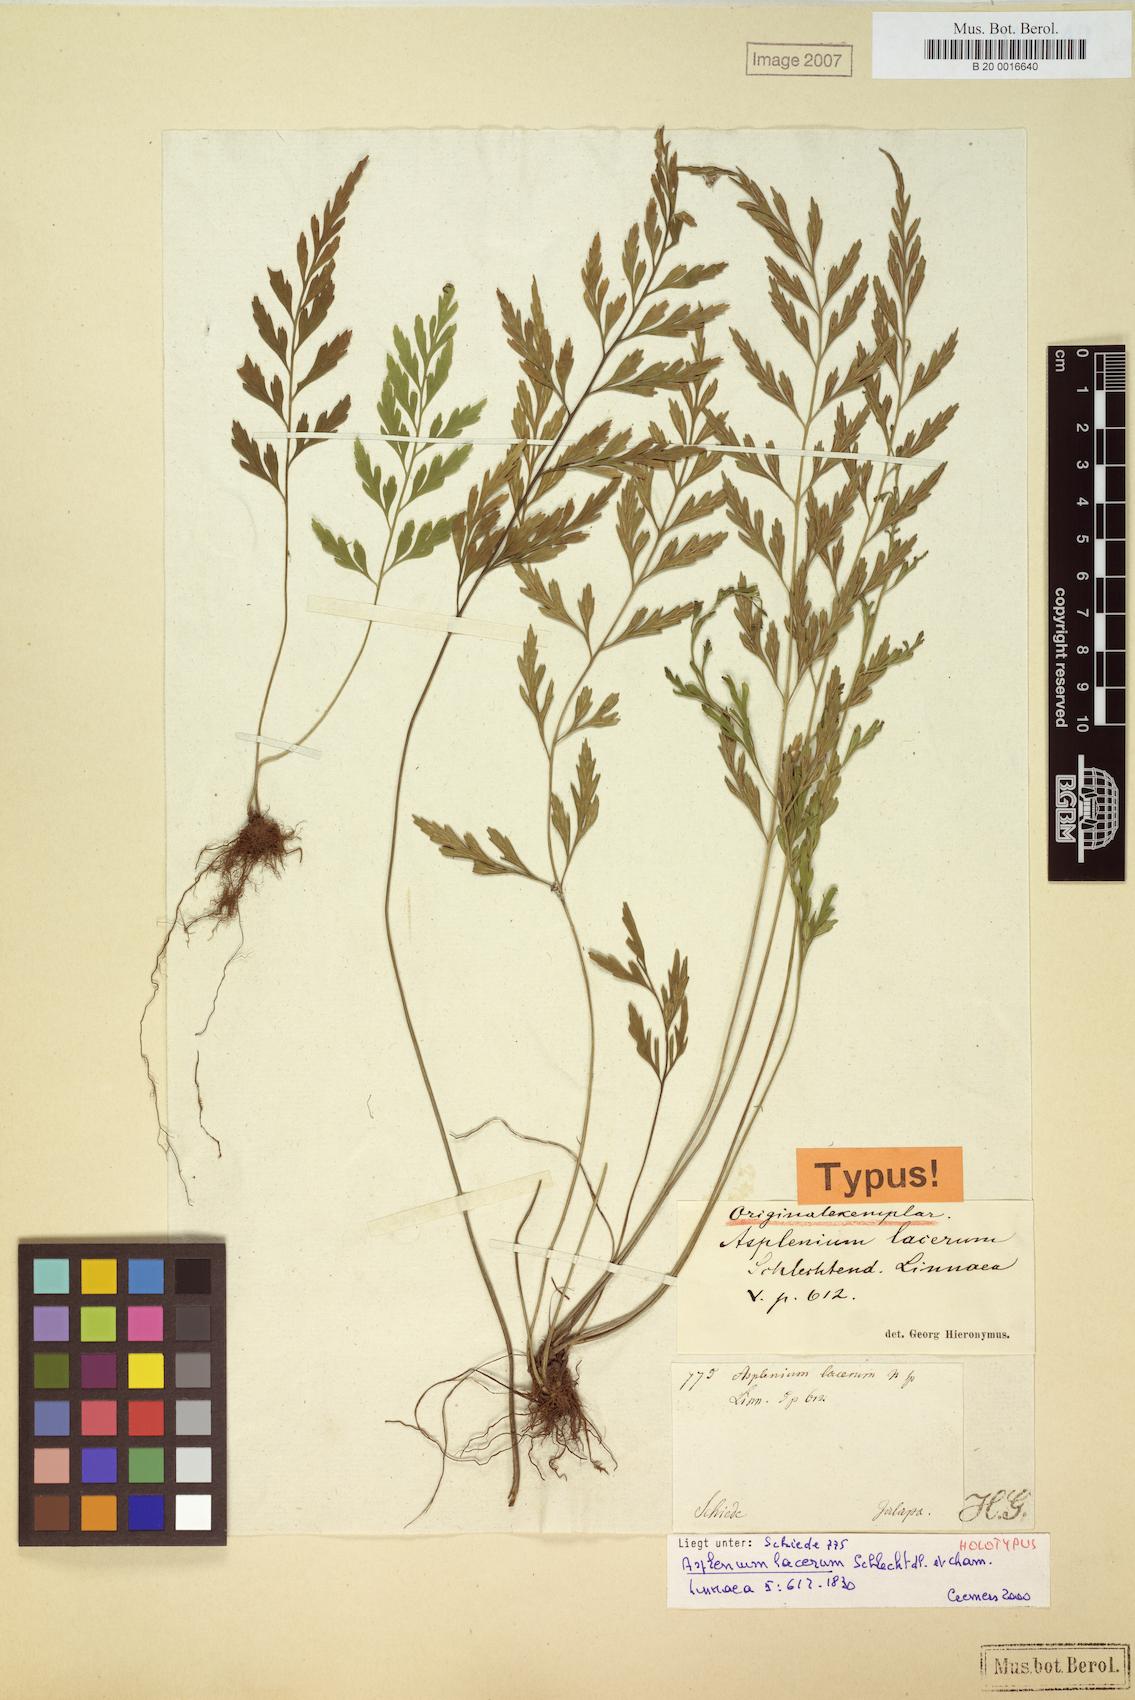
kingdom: Plantae
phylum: Tracheophyta
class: Polypodiopsida
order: Polypodiales
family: Aspleniaceae
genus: Asplenium
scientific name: Asplenium cuspidatum
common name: Eared spleenwort
